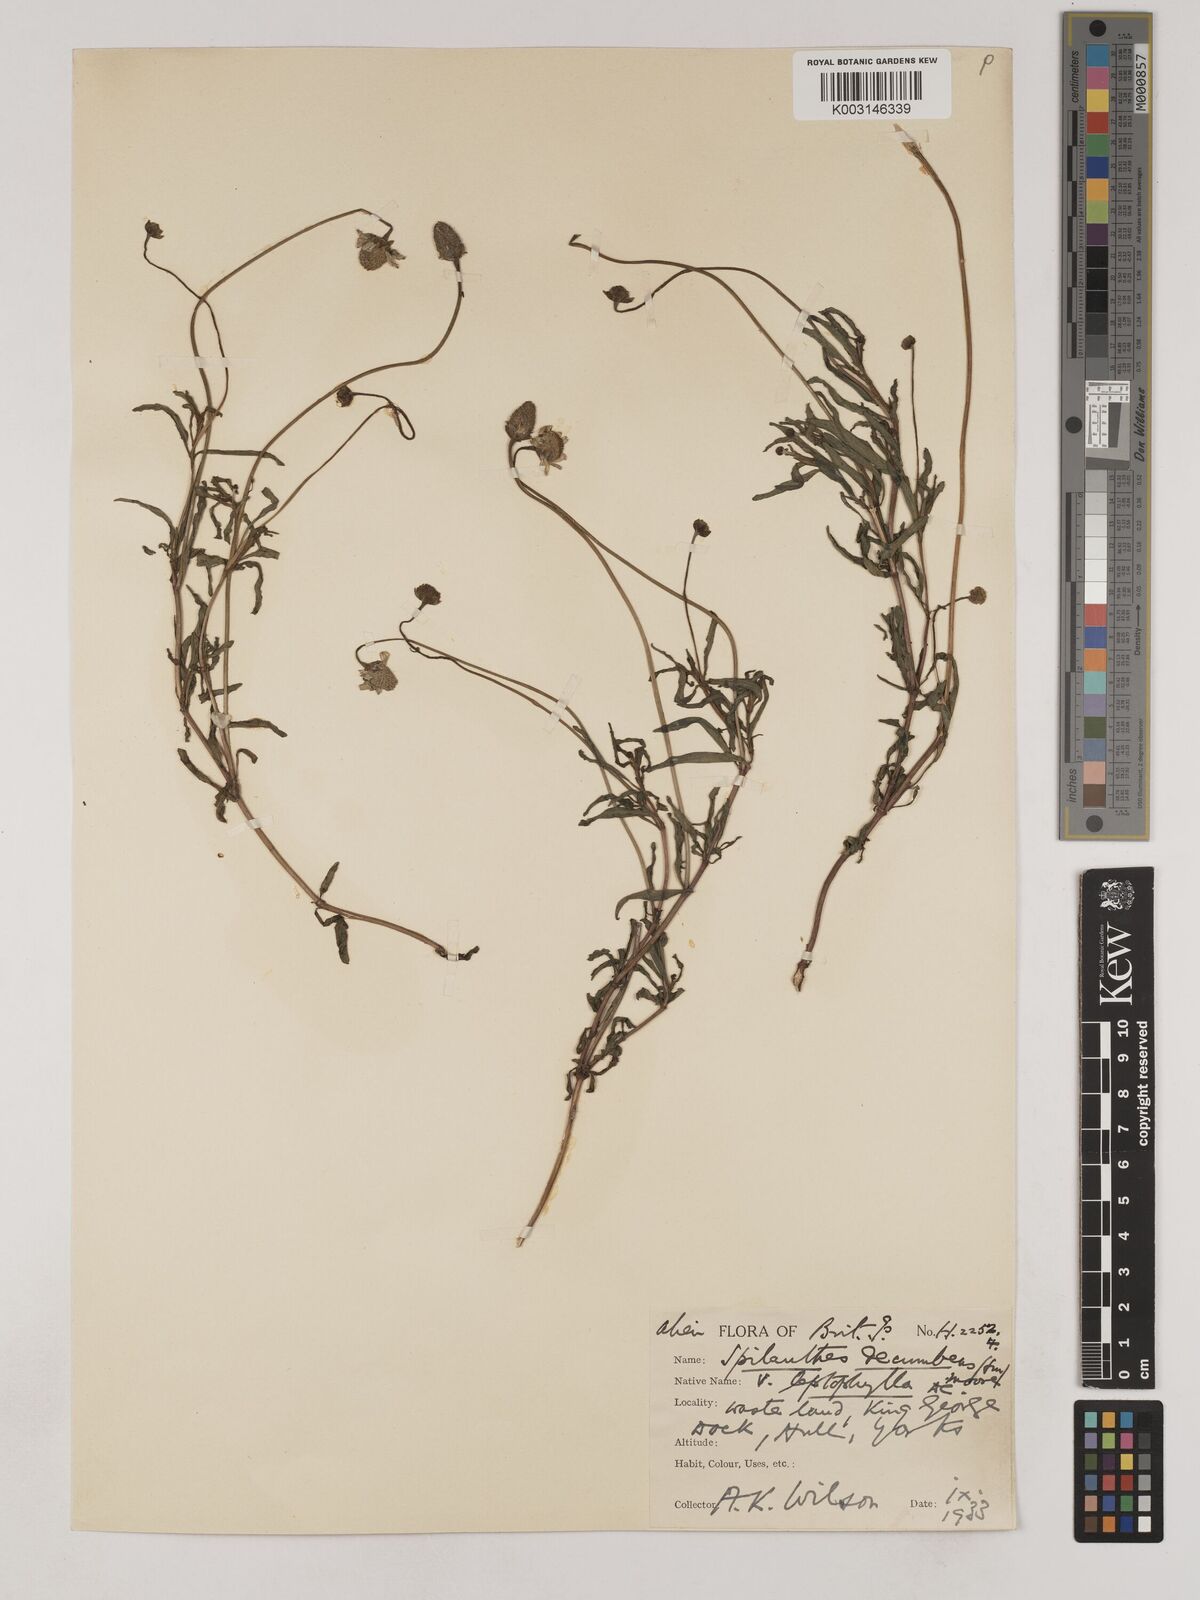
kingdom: Plantae
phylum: Tracheophyta
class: Magnoliopsida
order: Asterales
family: Asteraceae
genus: Acmella
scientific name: Acmella leptophylla
